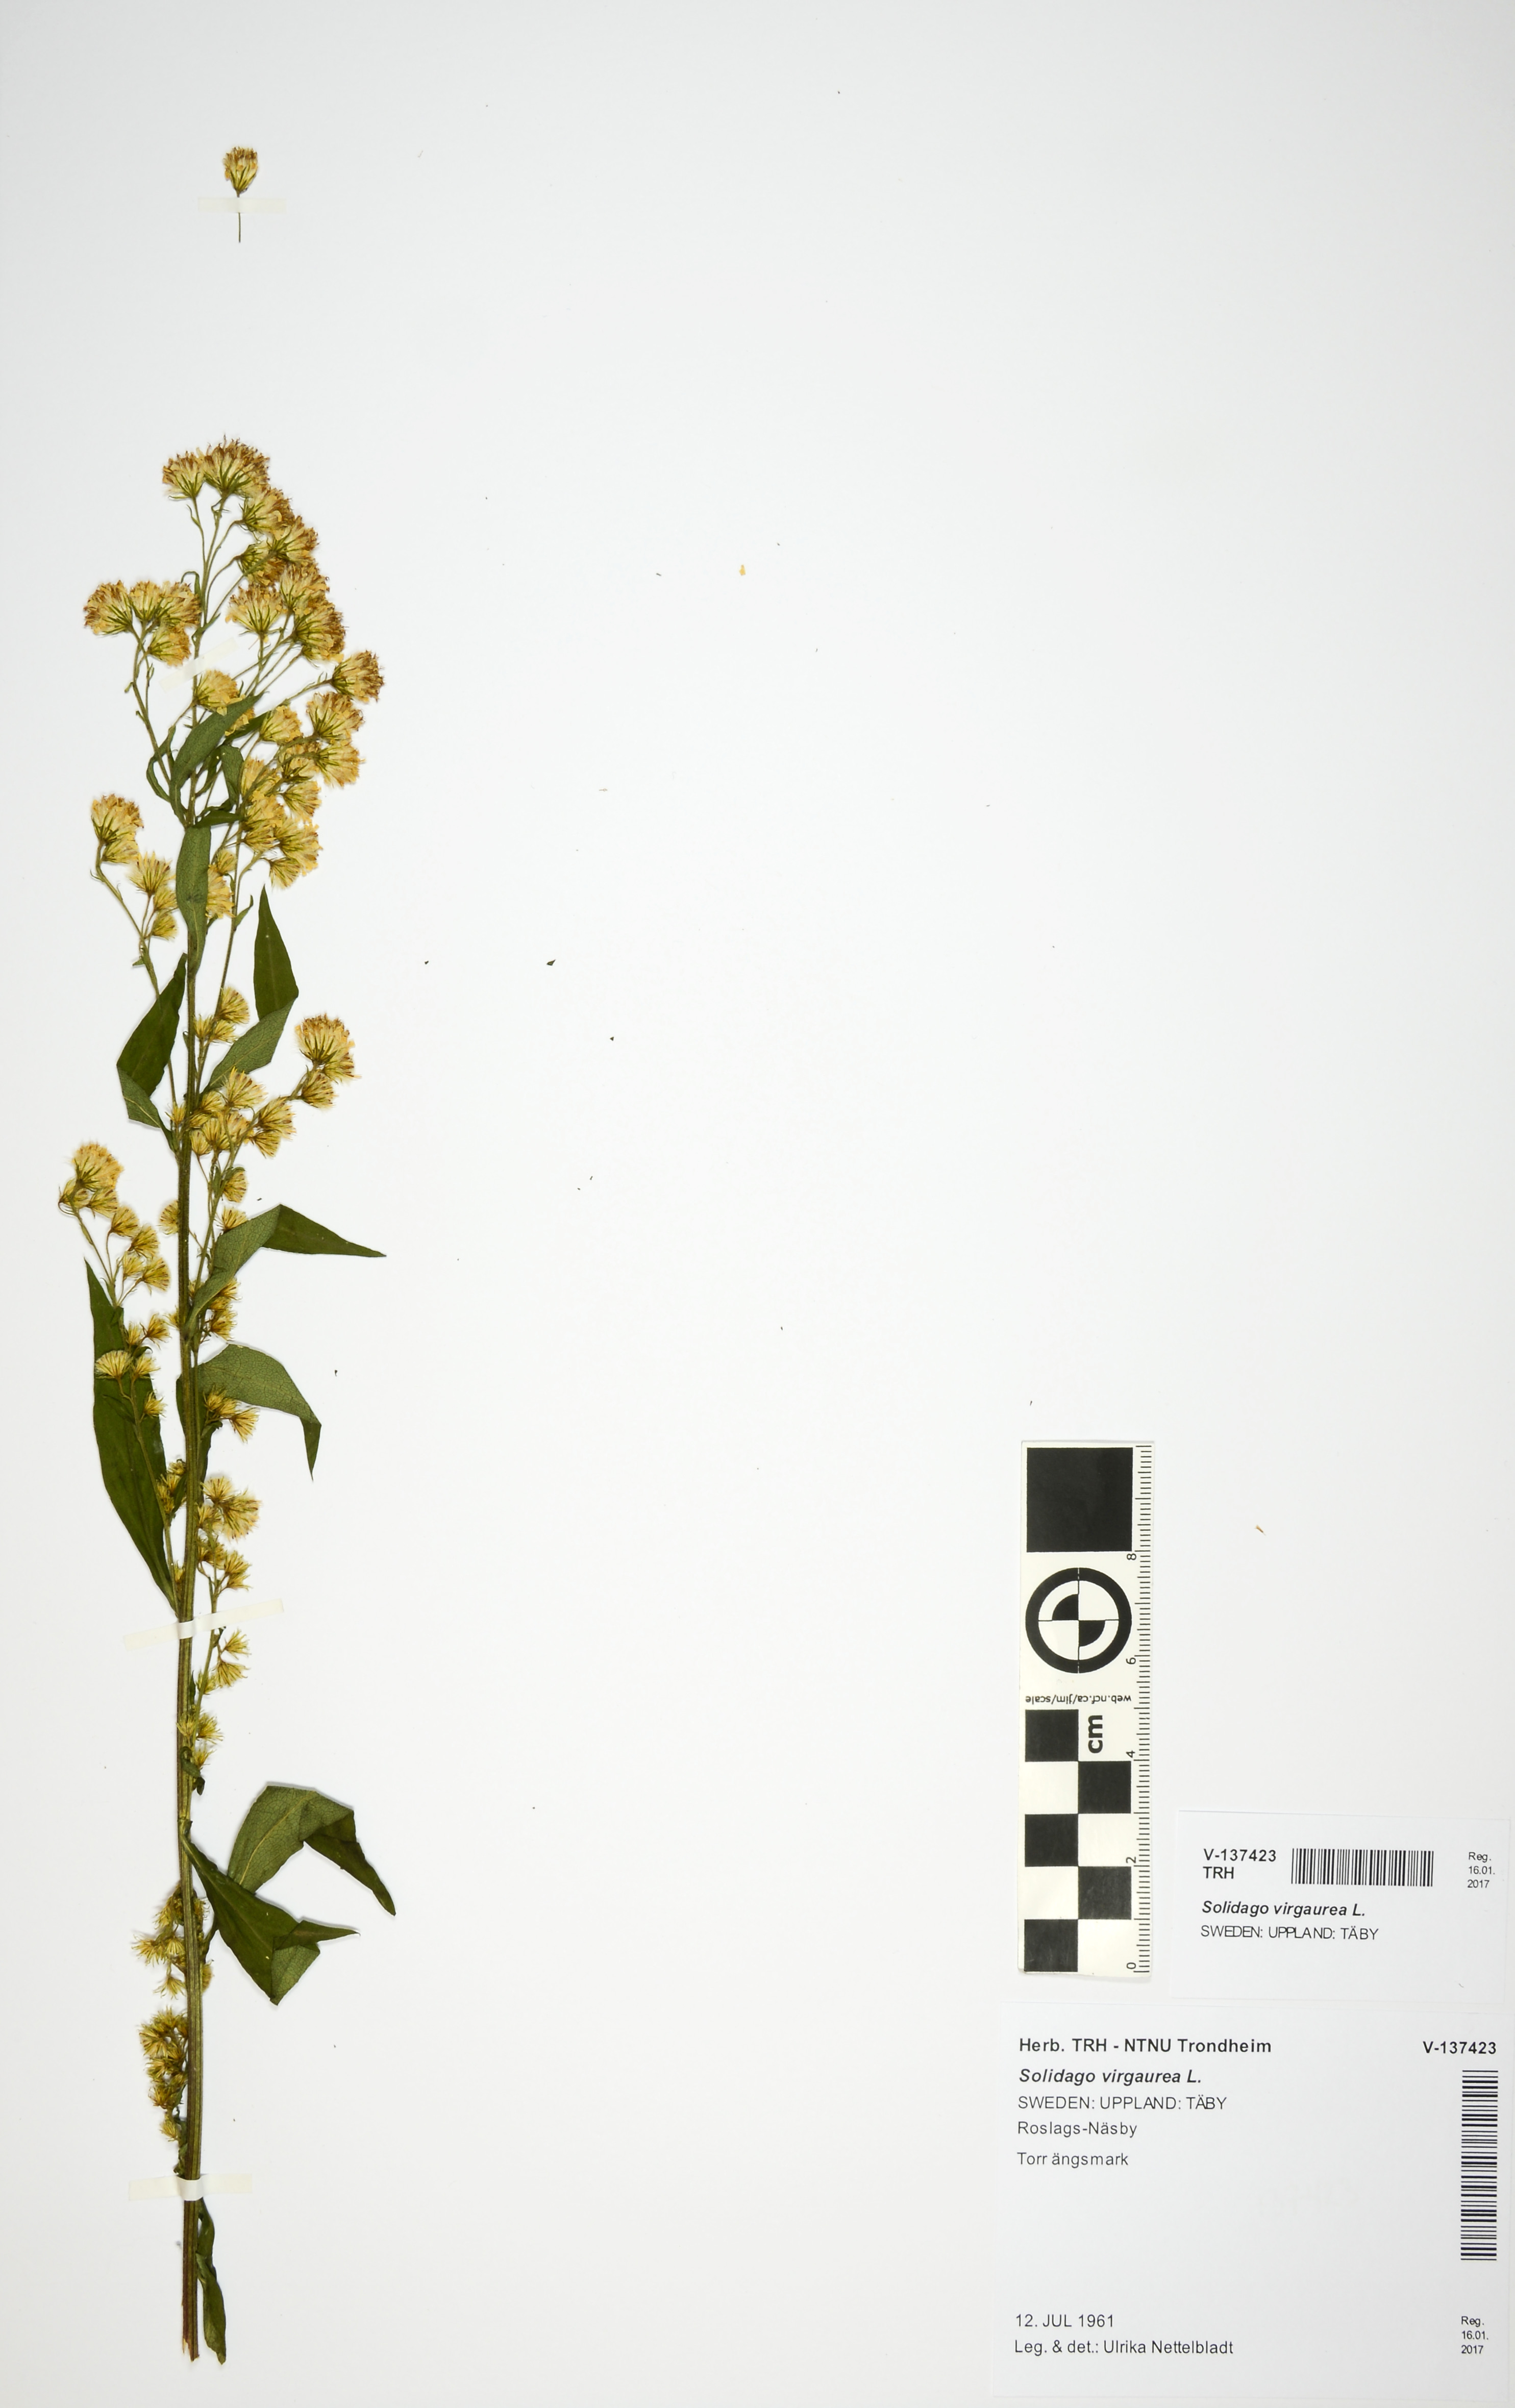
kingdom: Plantae
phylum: Tracheophyta
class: Magnoliopsida
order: Asterales
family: Asteraceae
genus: Solidago
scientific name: Solidago virgaurea
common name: Goldenrod
